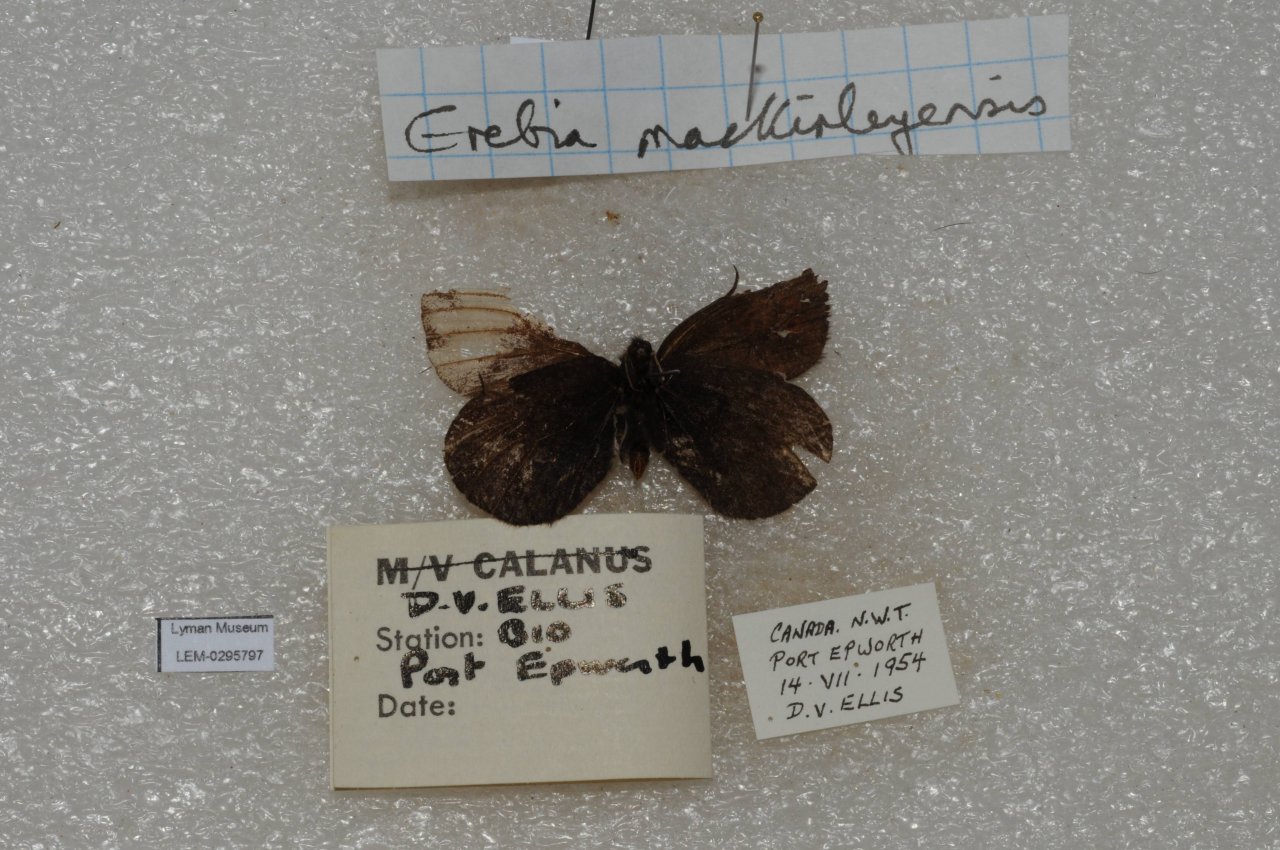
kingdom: Animalia
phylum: Arthropoda
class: Insecta
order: Lepidoptera
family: Nymphalidae
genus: Erebia
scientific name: Erebia rossii
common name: Ross's Alpine
